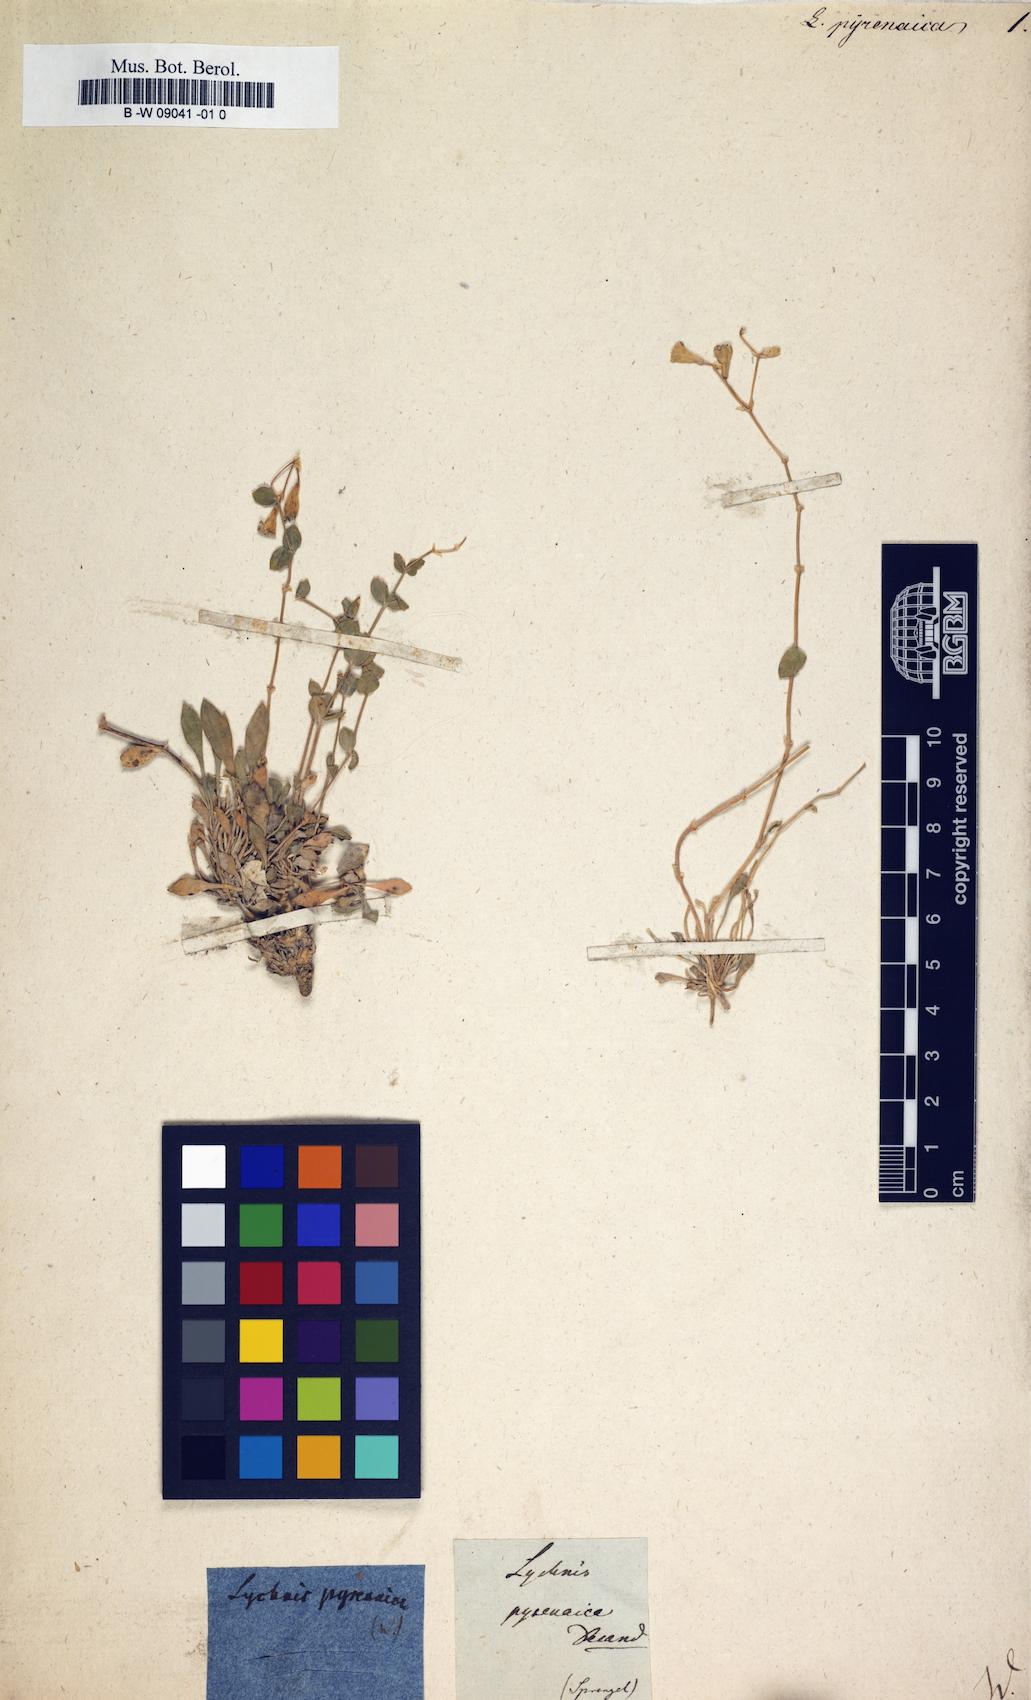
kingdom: Plantae
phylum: Tracheophyta
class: Magnoliopsida
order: Caryophyllales
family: Caryophyllaceae
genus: Petrocoptis
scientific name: Petrocoptis pyrenaica
